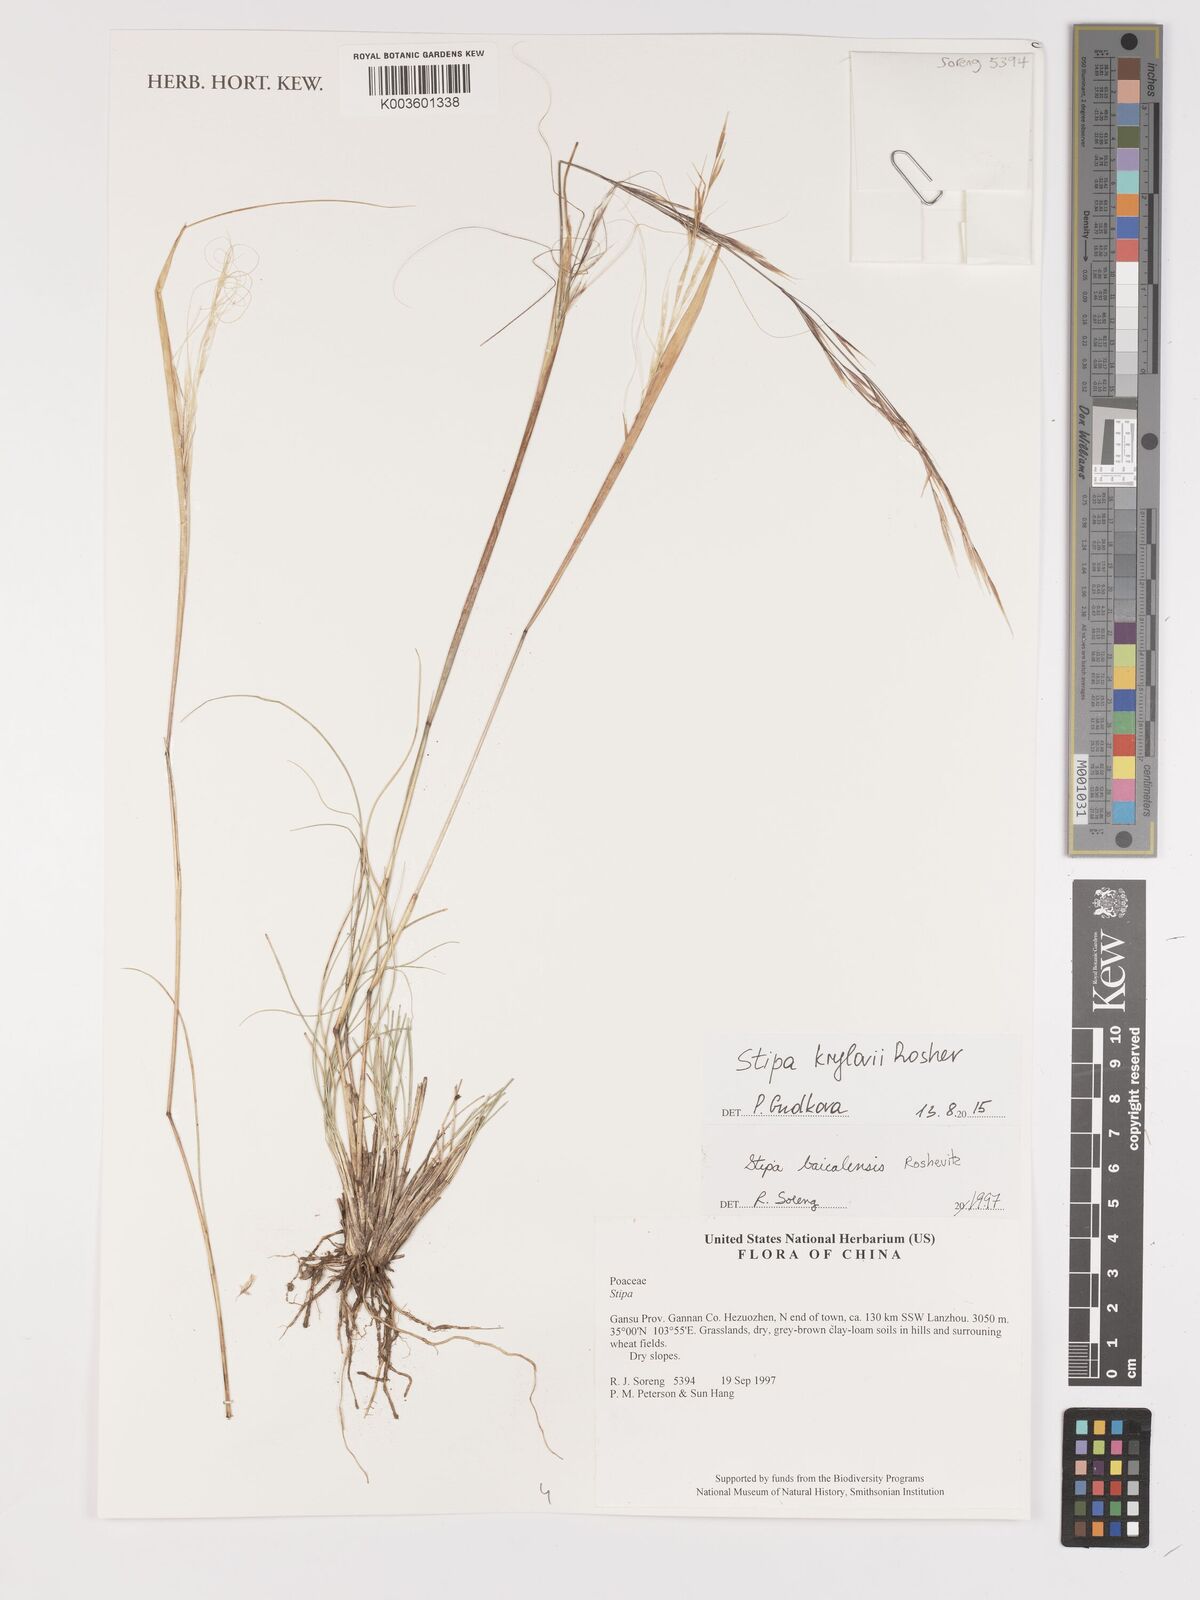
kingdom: Plantae
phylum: Tracheophyta
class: Liliopsida
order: Poales
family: Poaceae
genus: Stipa
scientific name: Stipa krylovii
